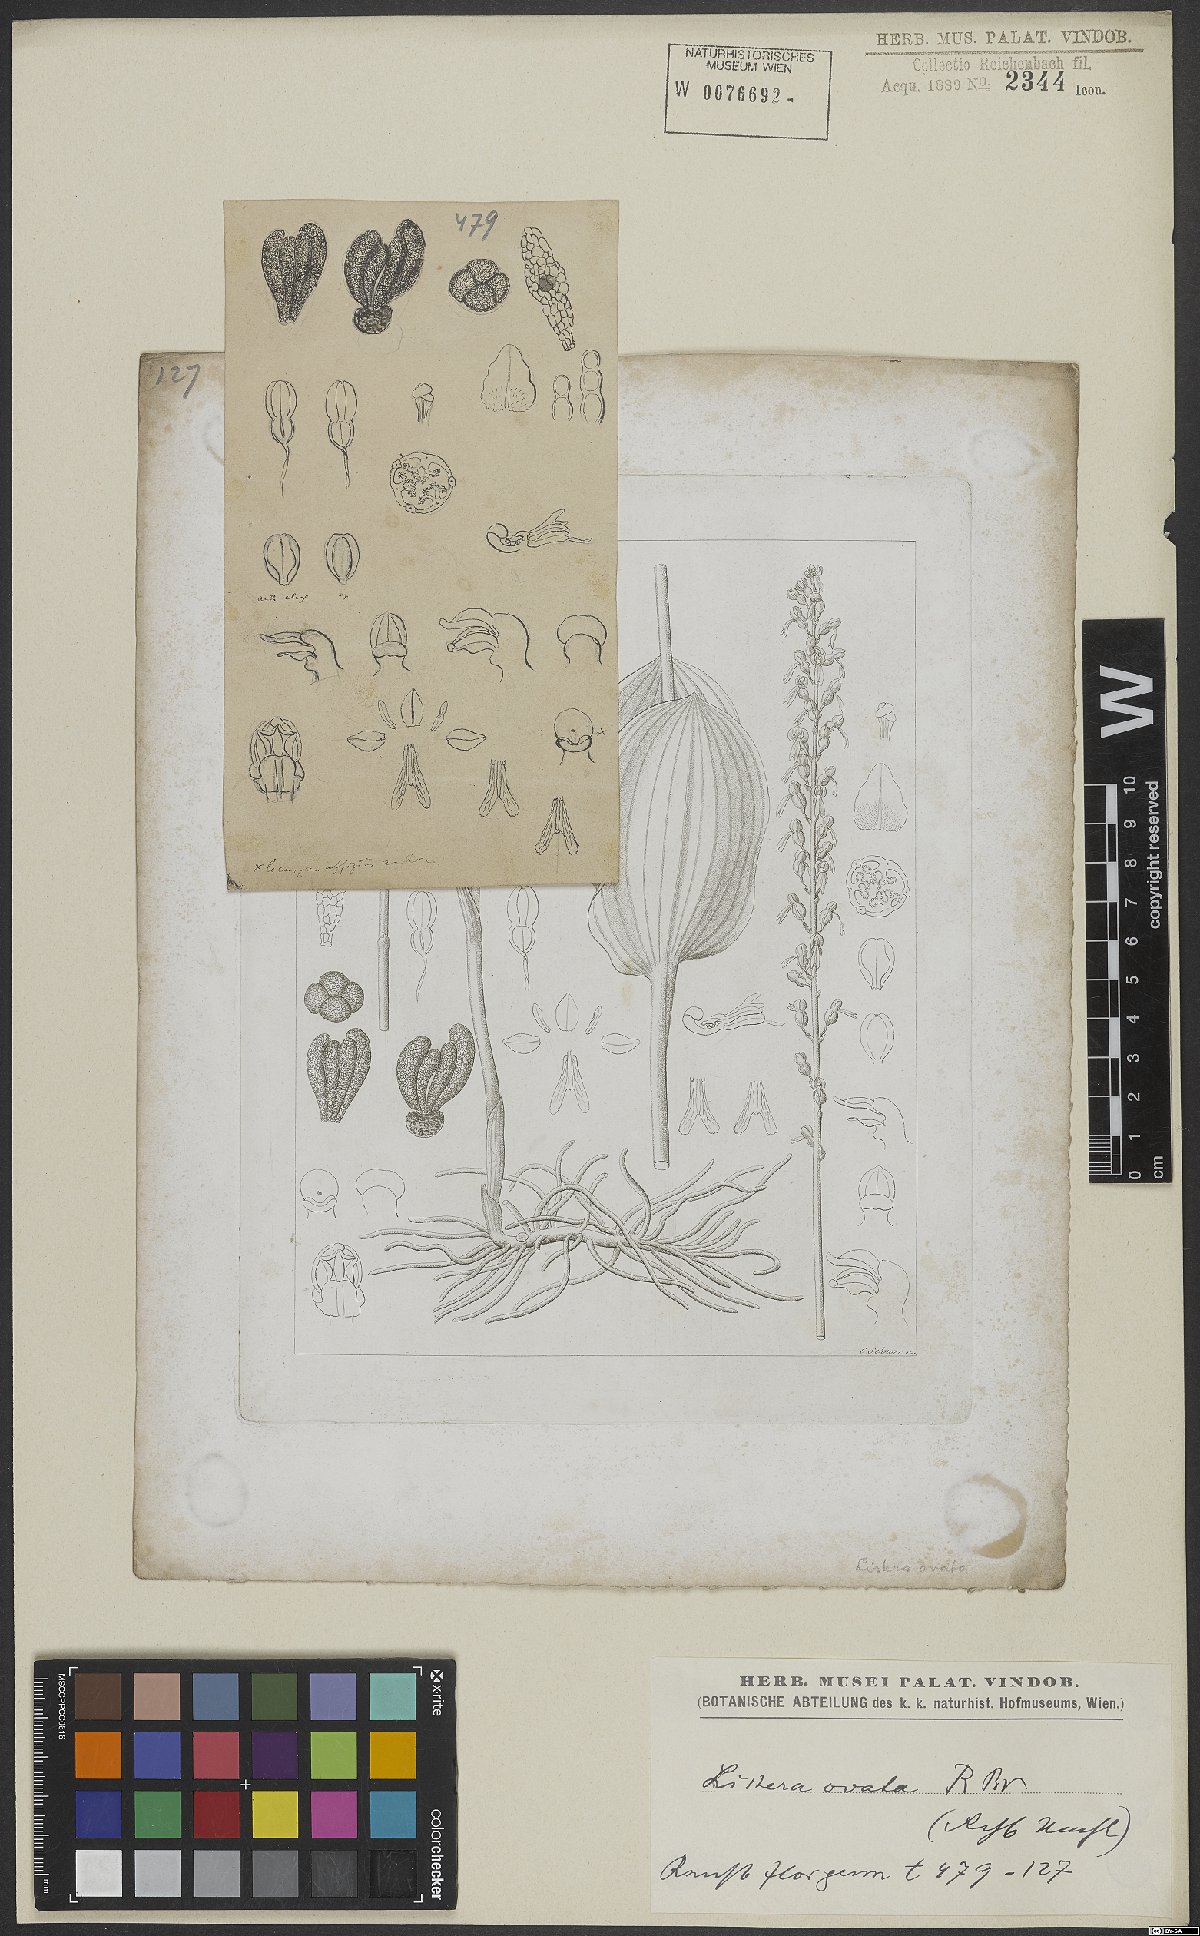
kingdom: Plantae
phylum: Tracheophyta
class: Liliopsida
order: Asparagales
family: Orchidaceae
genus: Neottia
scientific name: Neottia ovata
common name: Common twayblade
